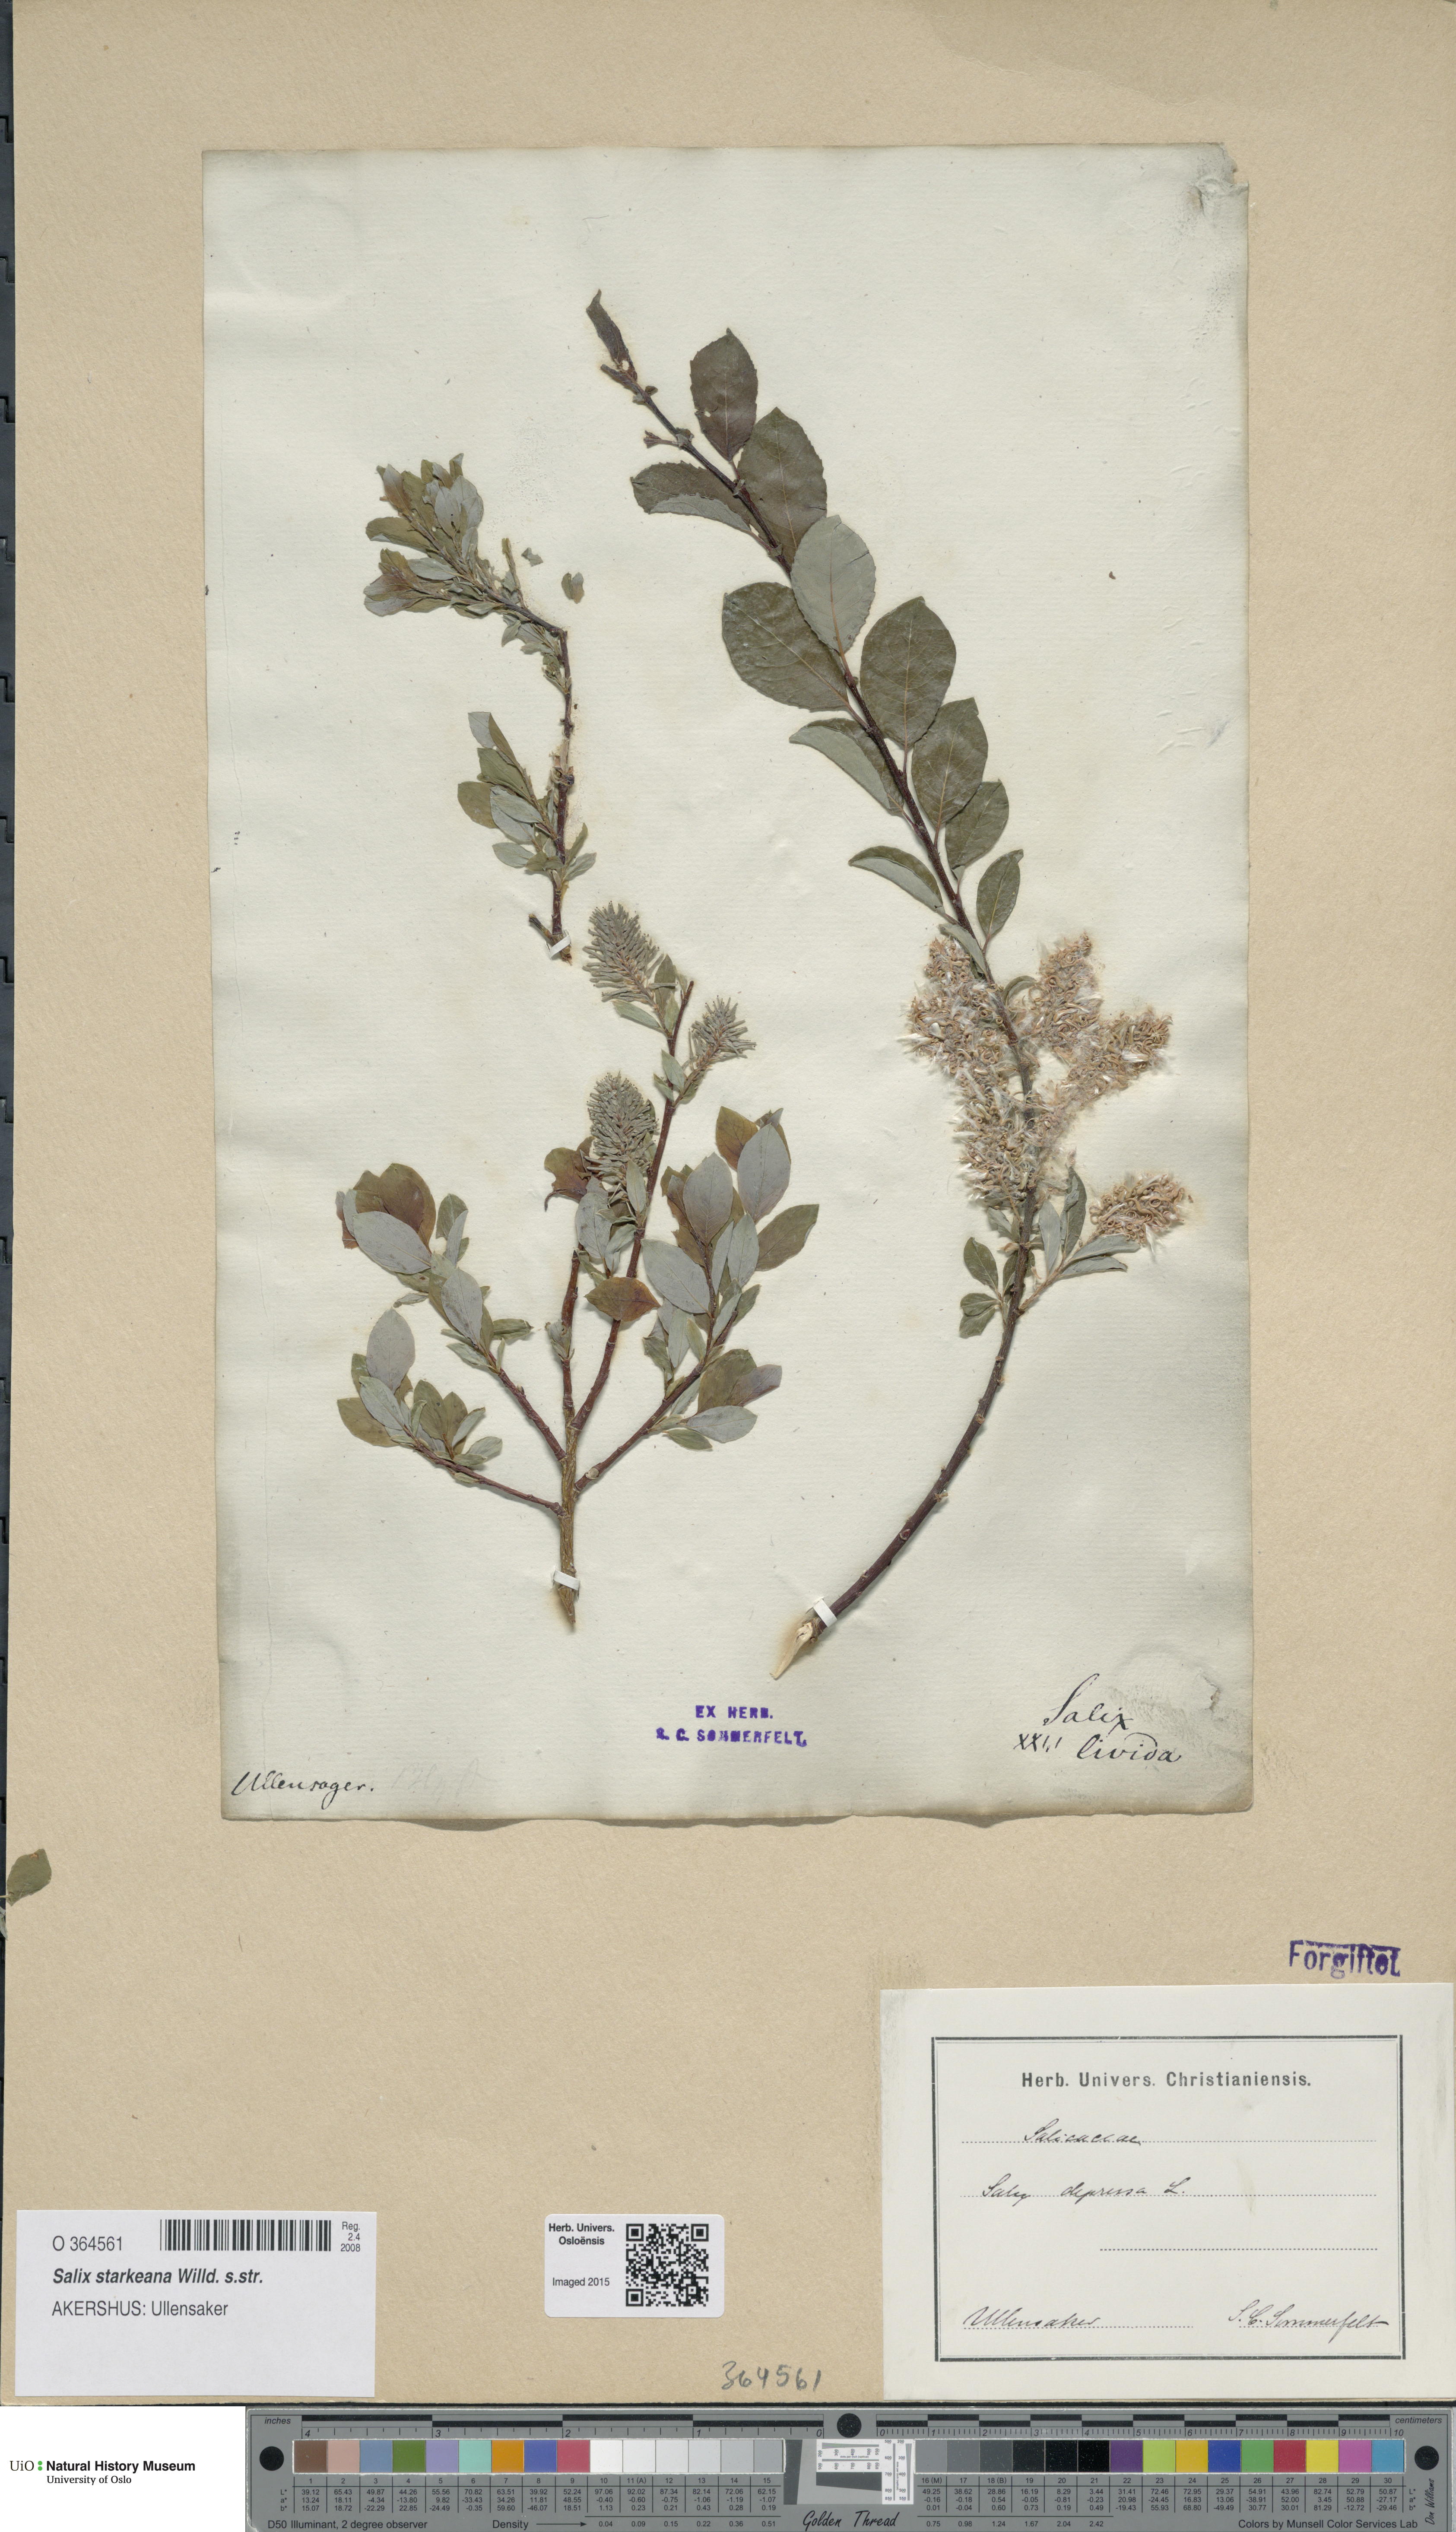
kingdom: Plantae
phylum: Tracheophyta
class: Magnoliopsida
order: Malpighiales
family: Salicaceae
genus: Salix
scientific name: Salix starkeana
